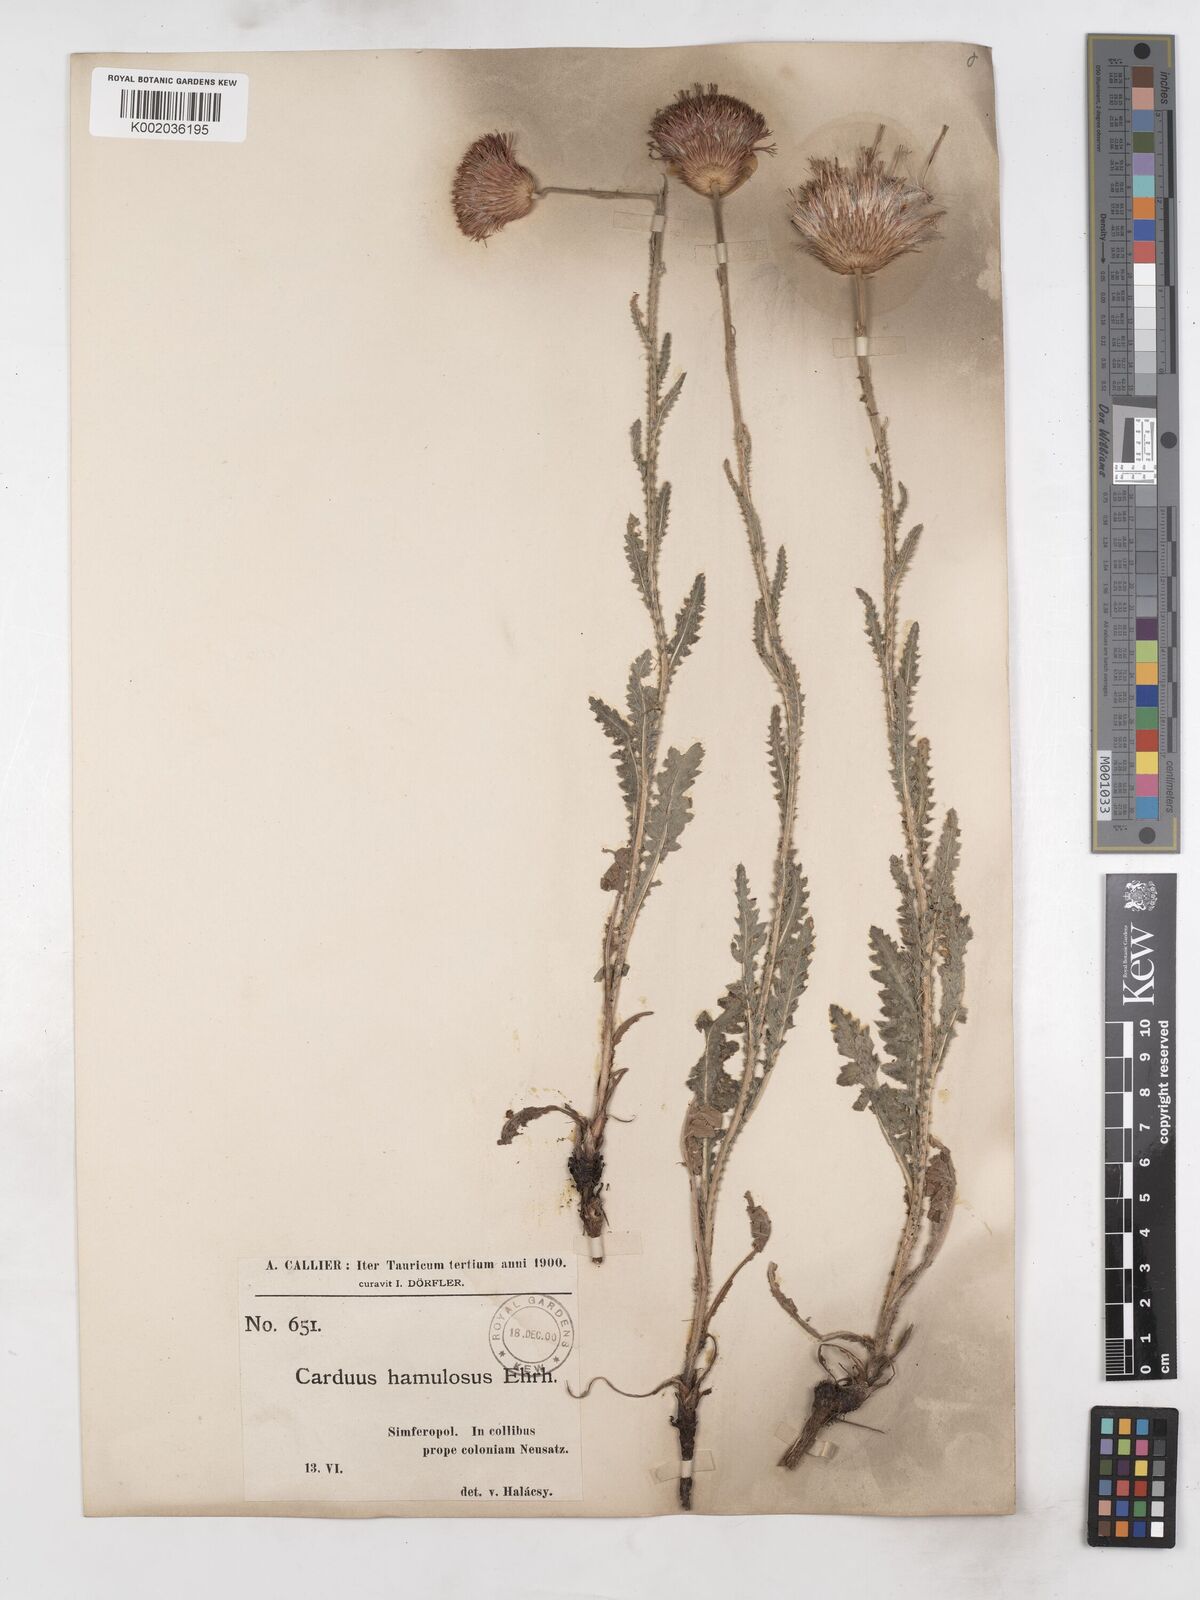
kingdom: Plantae
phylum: Tracheophyta
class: Magnoliopsida
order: Asterales
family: Asteraceae
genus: Carduus
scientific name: Carduus hamulosus
